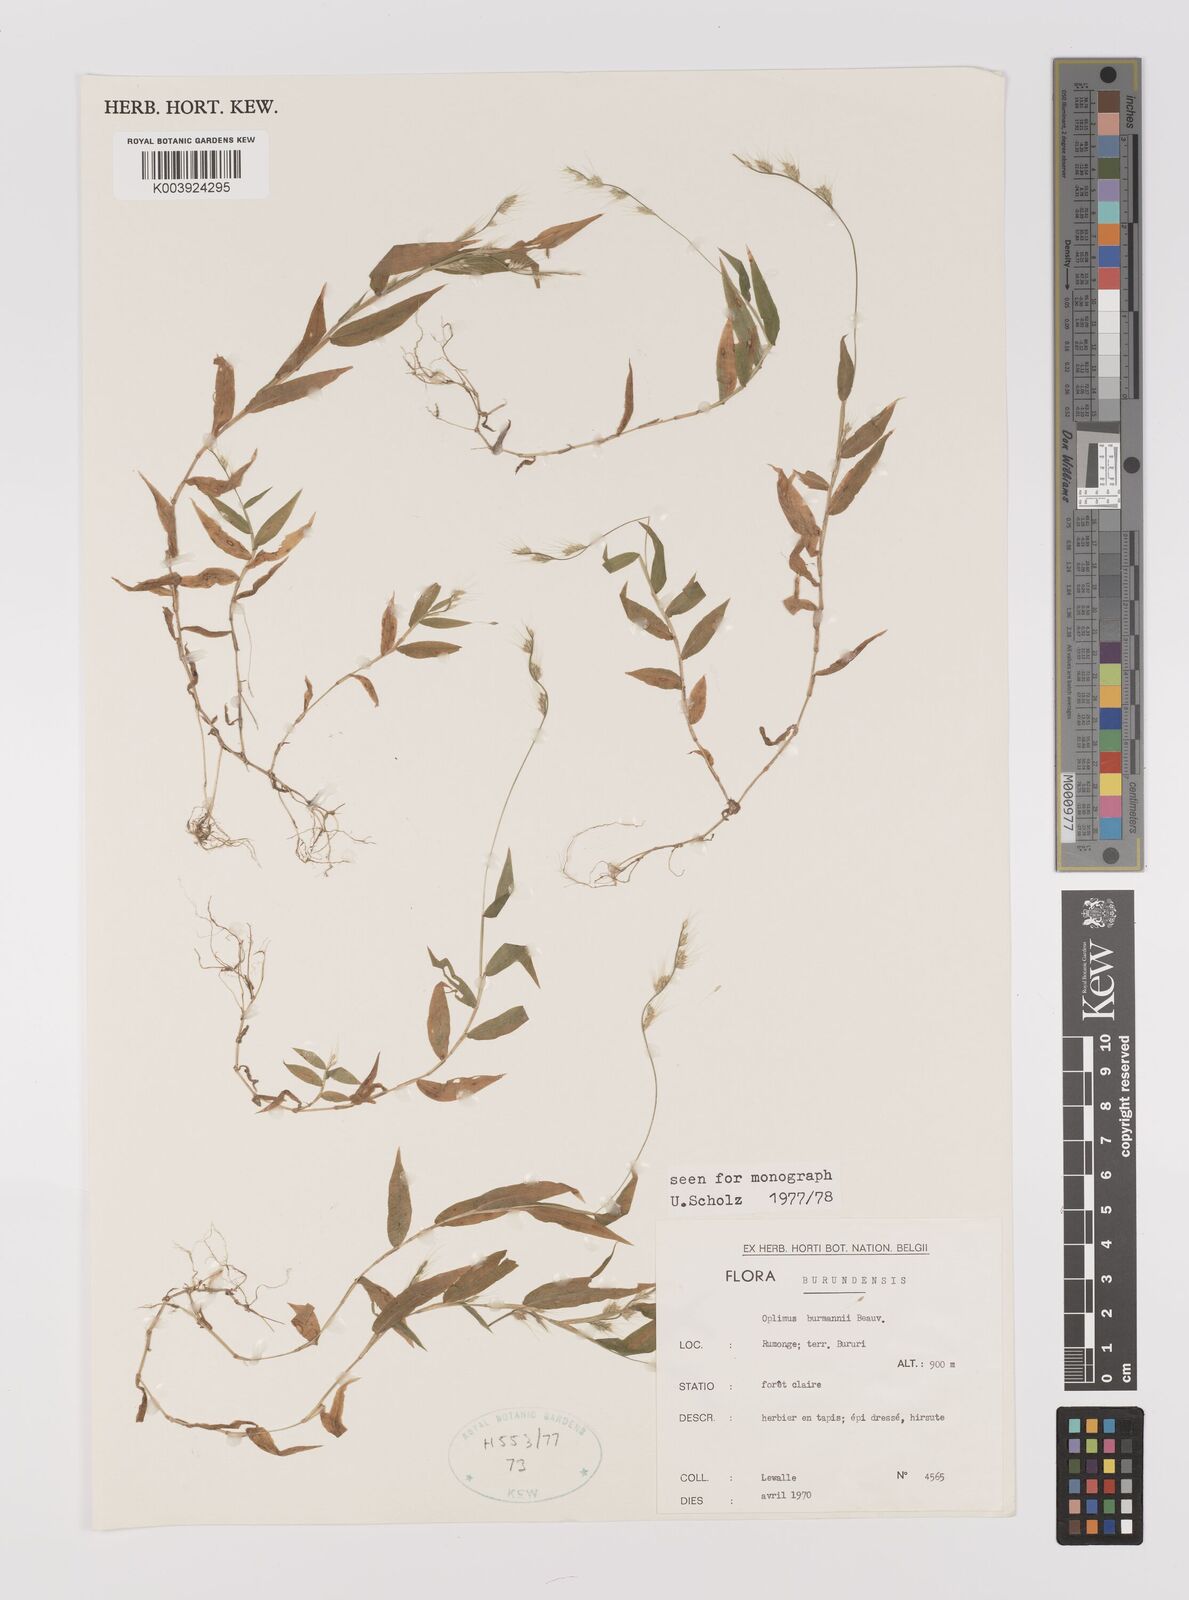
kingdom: Plantae
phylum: Tracheophyta
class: Liliopsida
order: Poales
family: Poaceae
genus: Oplismenus
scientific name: Oplismenus burmanni
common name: Burmann's basketgrass
